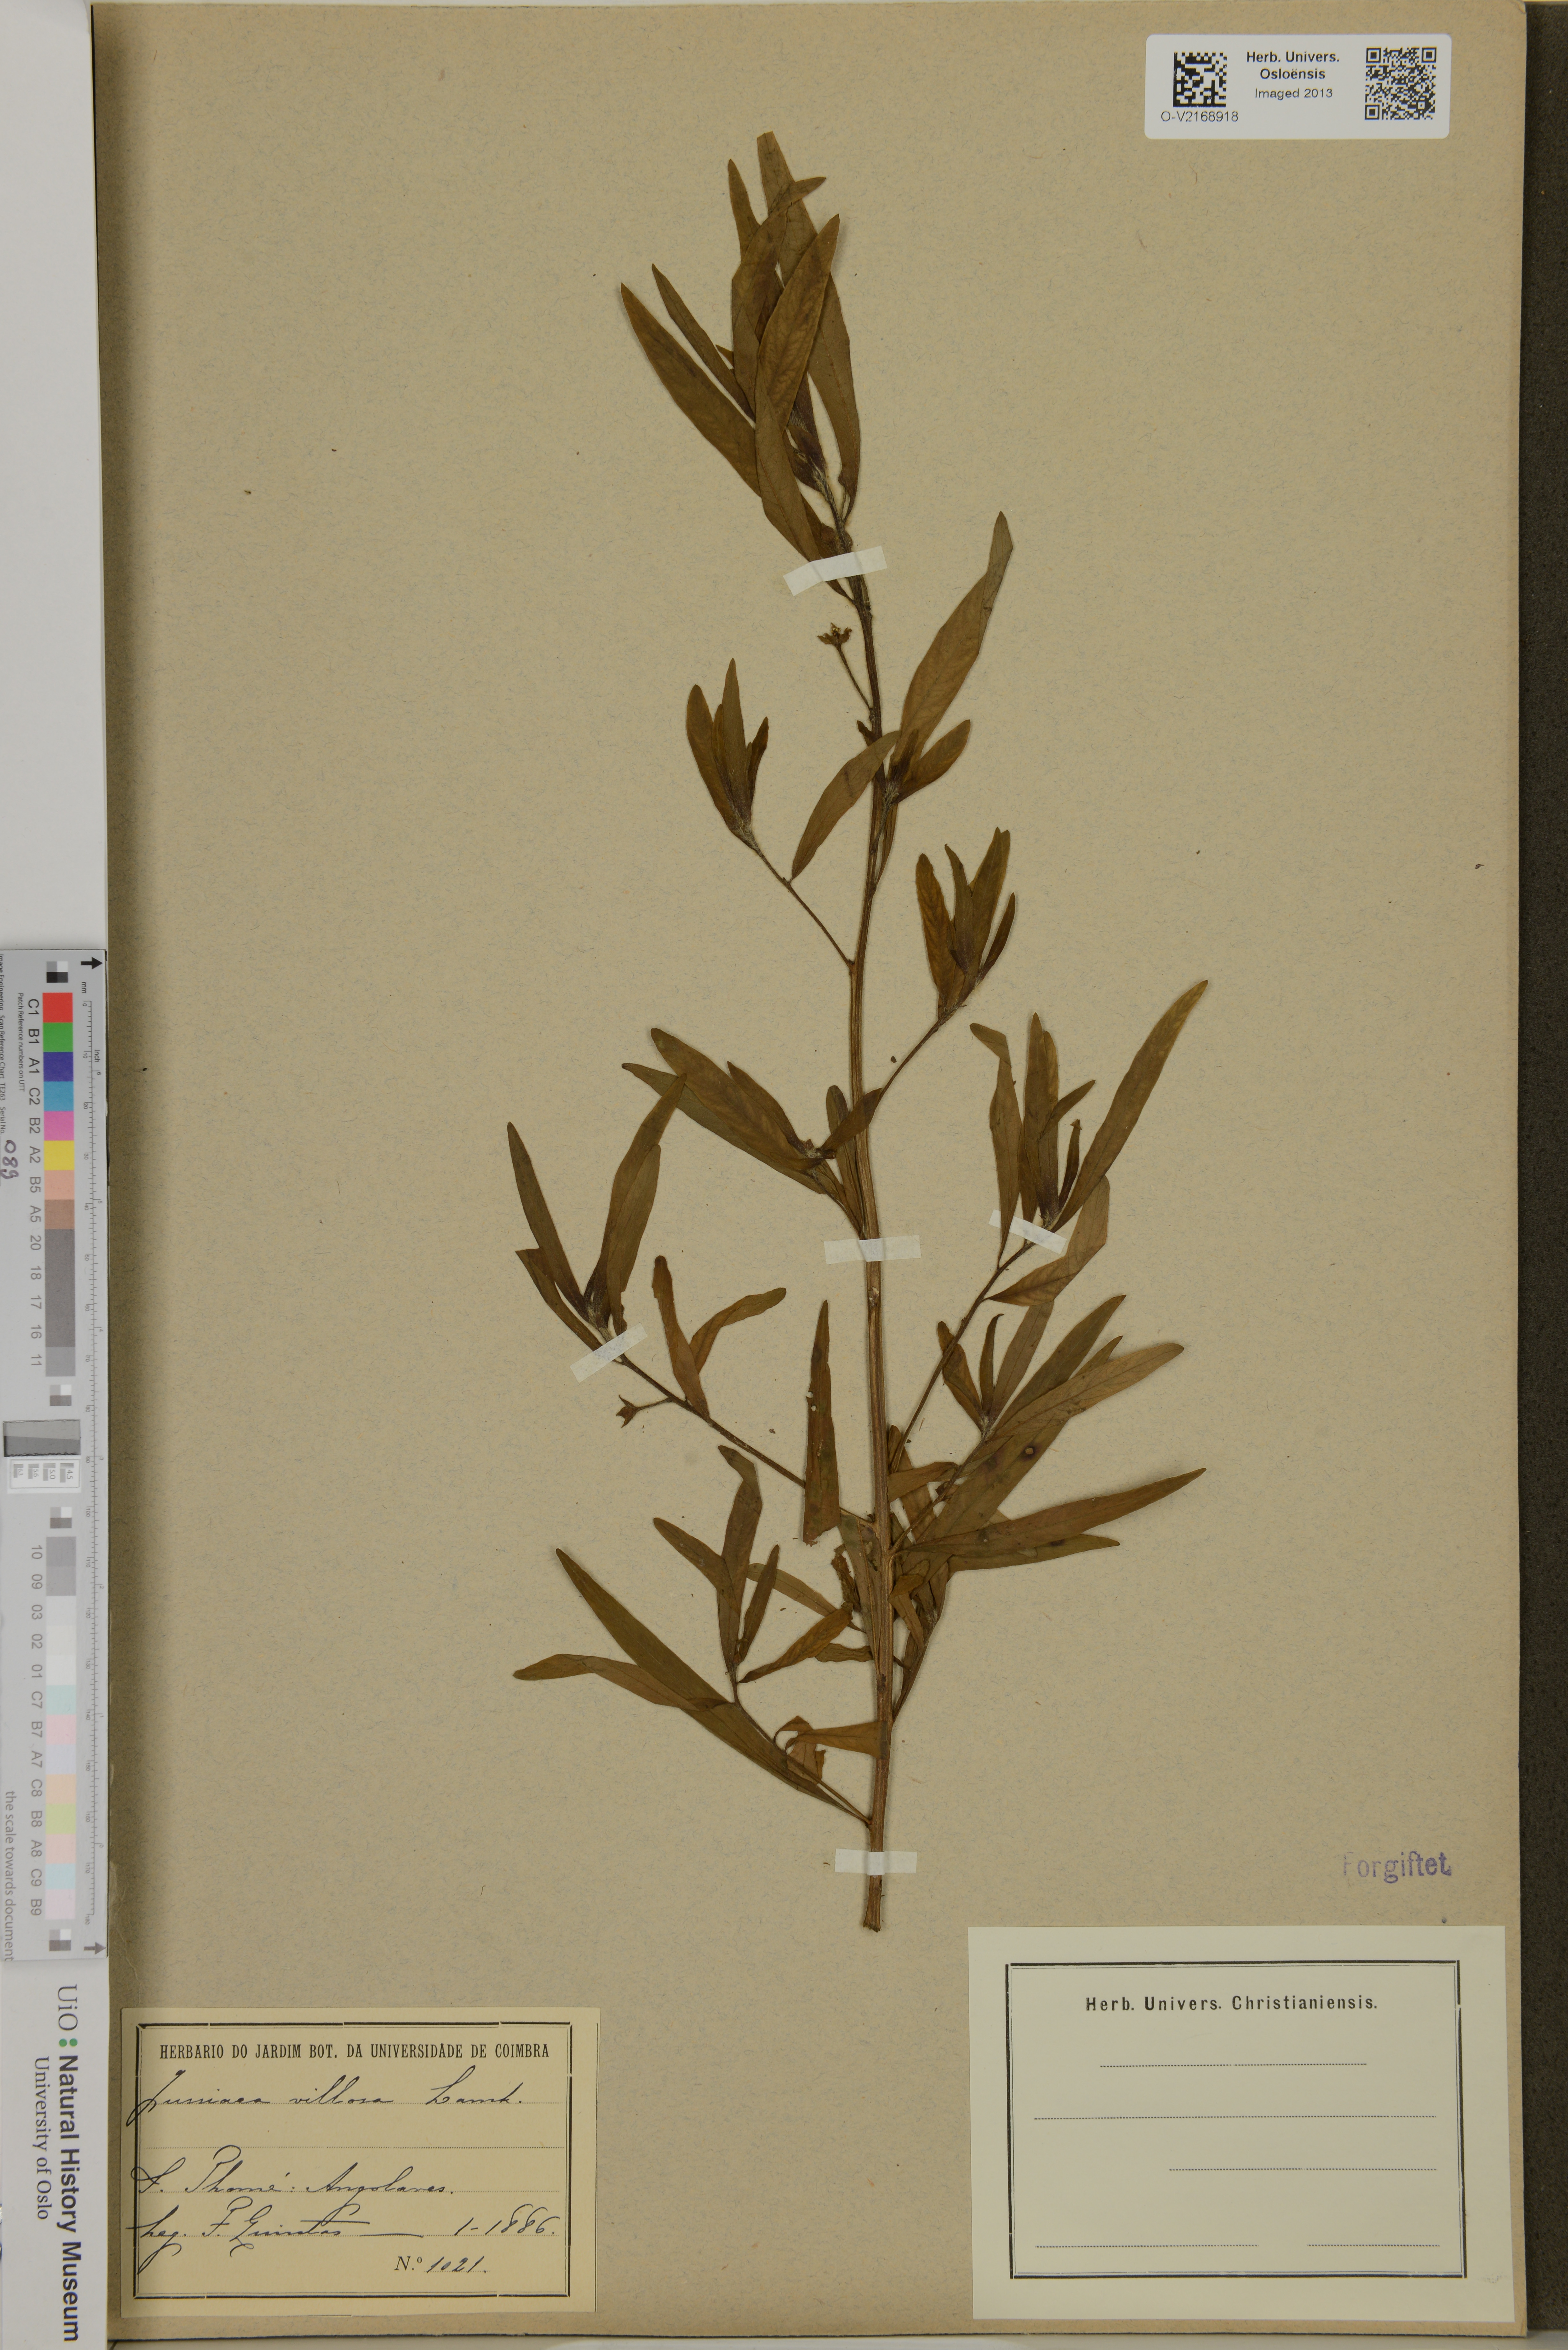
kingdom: Plantae
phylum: Tracheophyta
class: Magnoliopsida
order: Myrtales
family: Onagraceae
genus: Ludwigia
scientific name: Ludwigia octovalvis
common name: Water-primrose
